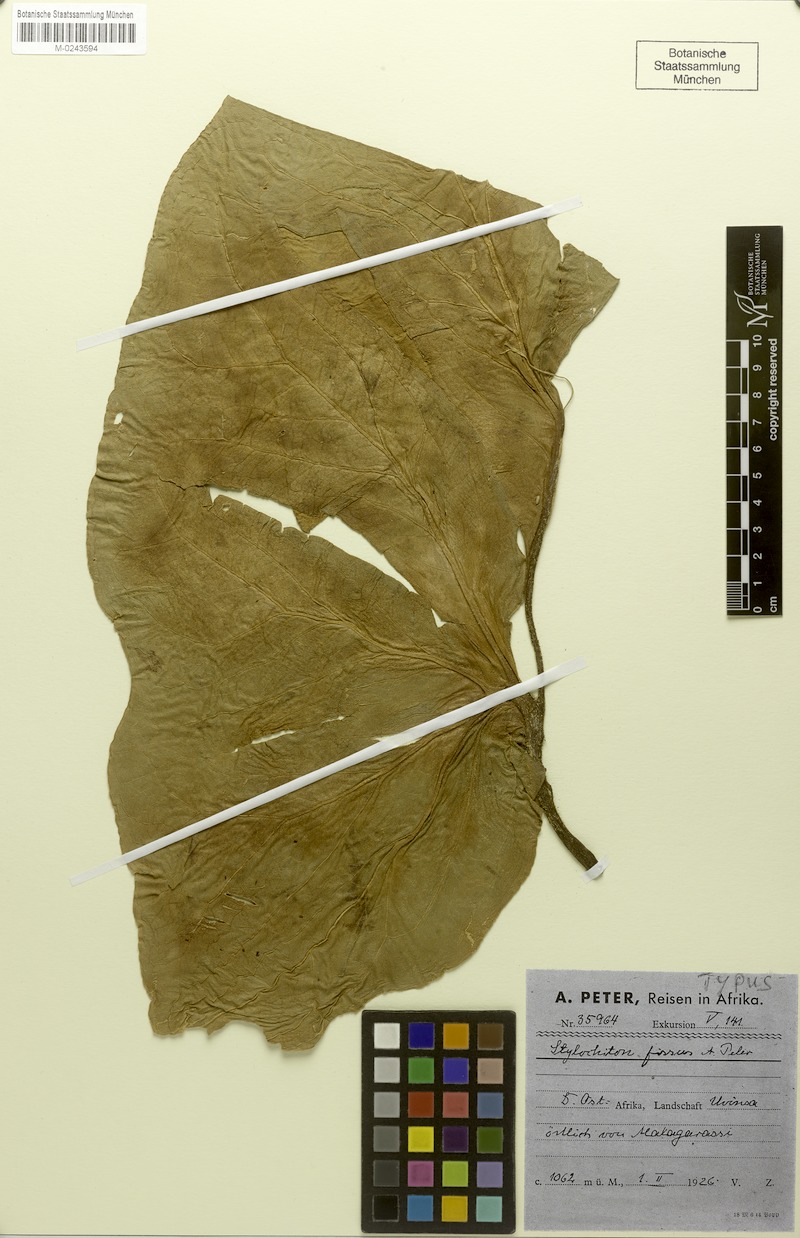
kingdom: Plantae
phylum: Tracheophyta
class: Liliopsida
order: Alismatales
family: Araceae
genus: Anchomanes
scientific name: Anchomanes boehmii
